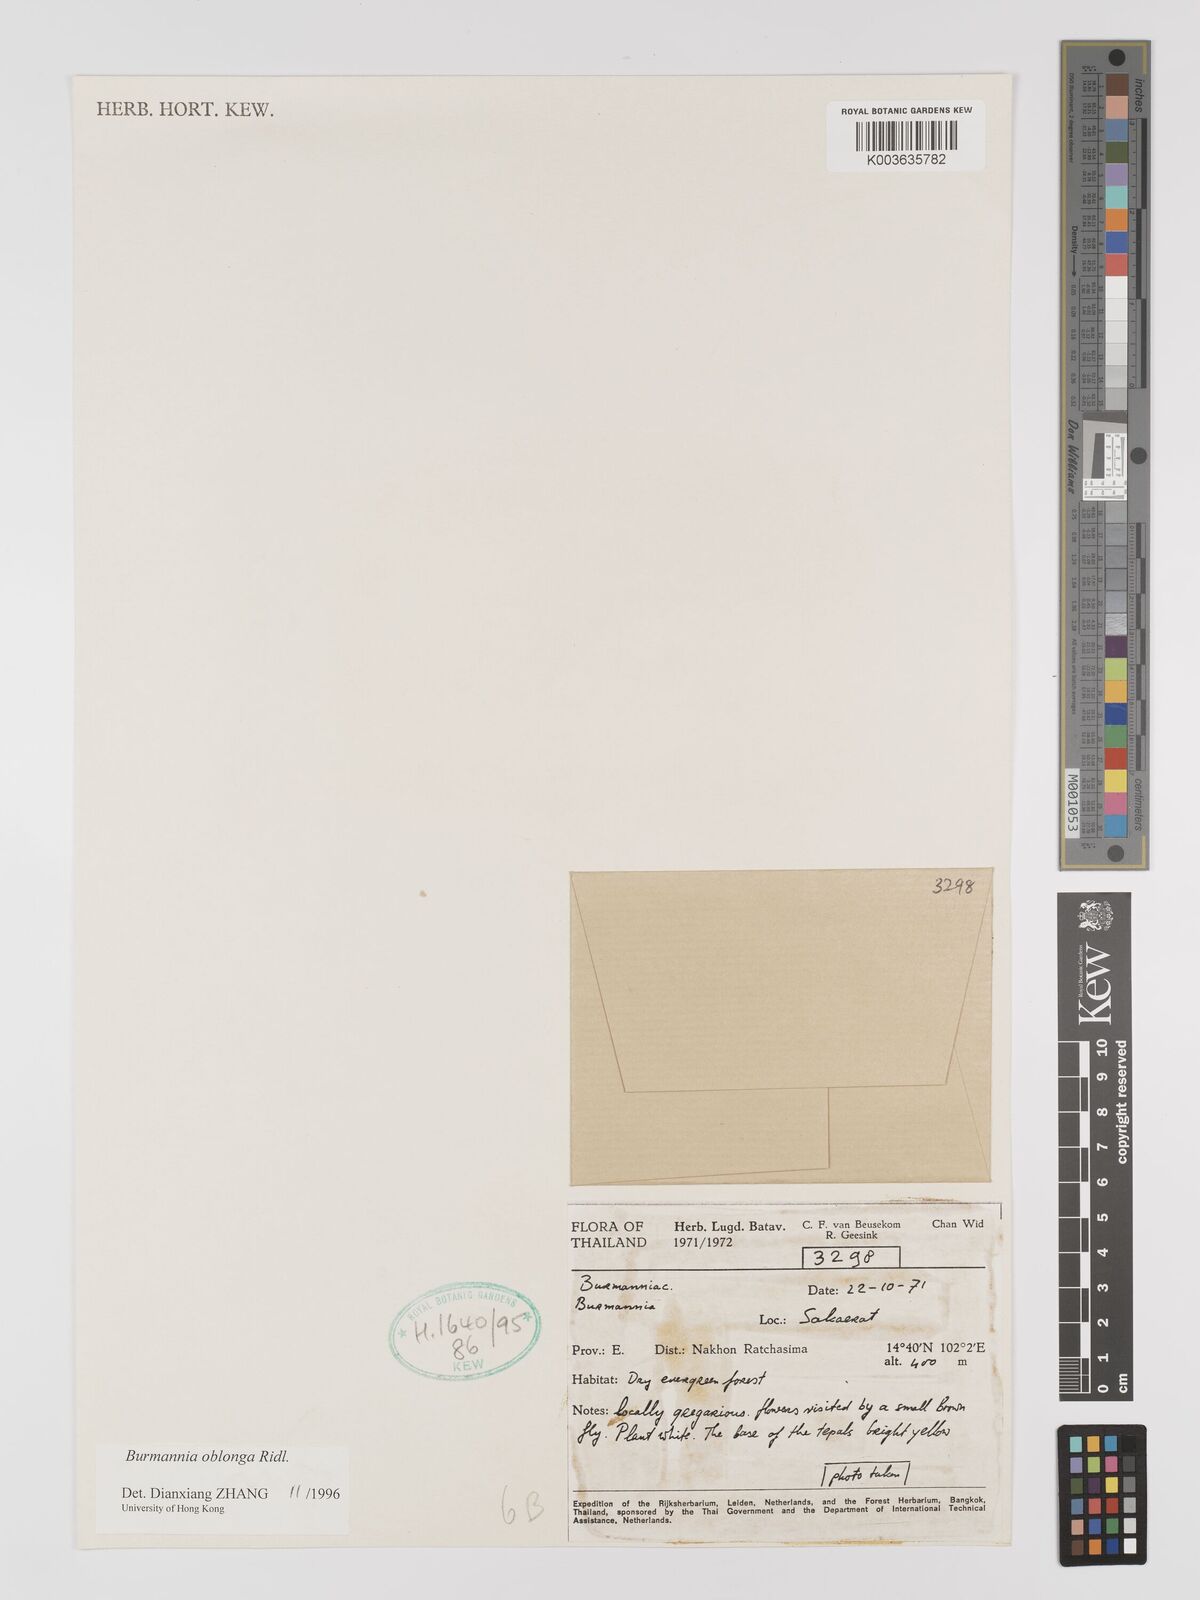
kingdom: Plantae
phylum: Tracheophyta
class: Liliopsida
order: Dioscoreales
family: Burmanniaceae
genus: Burmannia
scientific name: Burmannia oblonga
